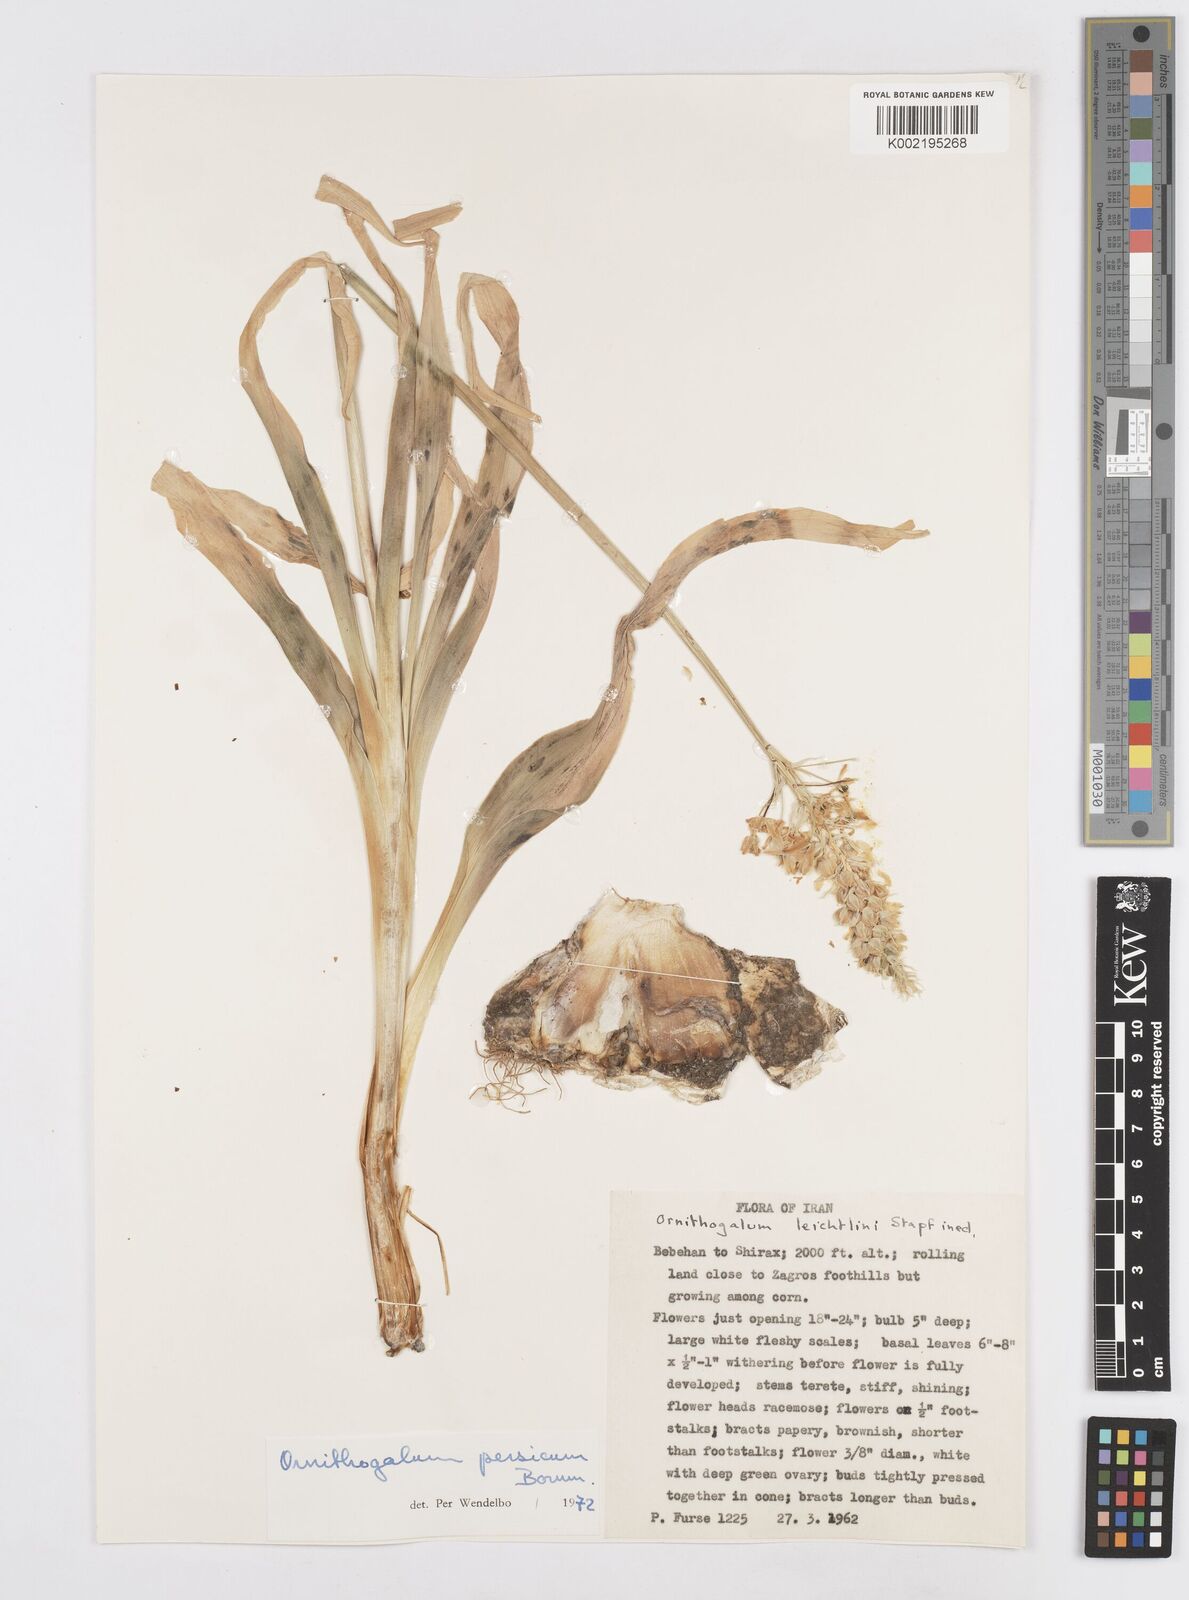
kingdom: Plantae
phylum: Tracheophyta
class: Liliopsida
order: Asparagales
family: Asparagaceae
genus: Ornithogalum
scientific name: Ornithogalum persicum
